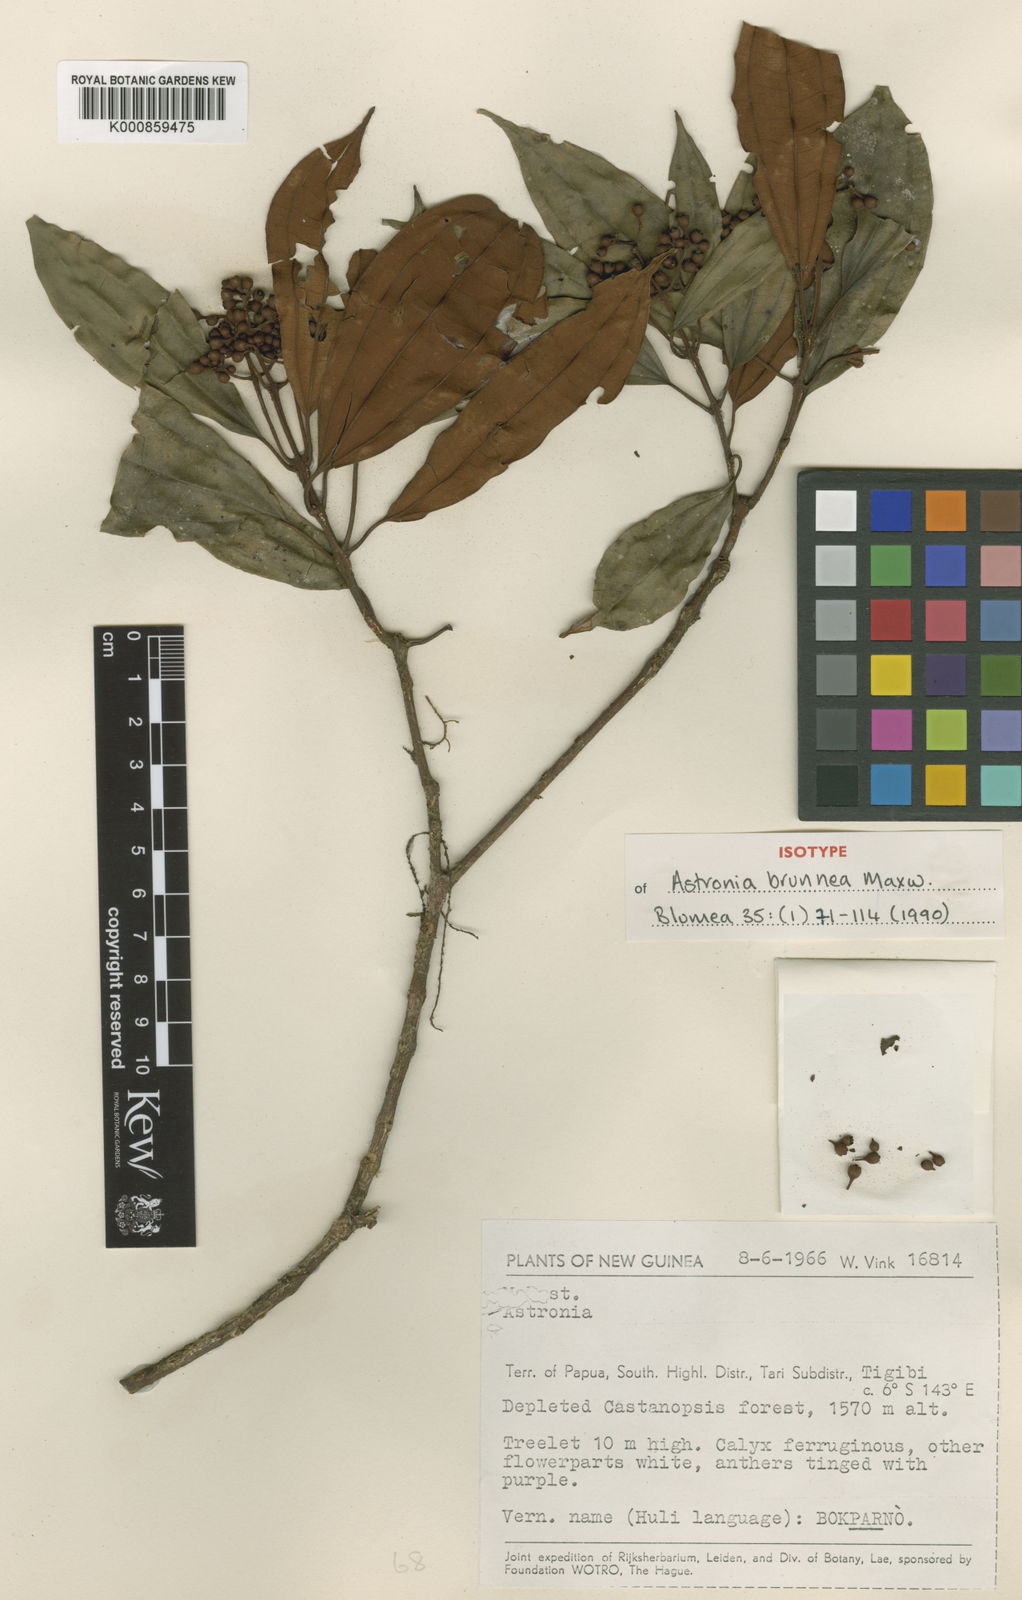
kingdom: Plantae
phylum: Tracheophyta
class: Magnoliopsida
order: Myrtales
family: Melastomataceae
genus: Astronia
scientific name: Astronia brunnea
